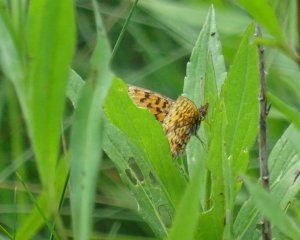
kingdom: Animalia
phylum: Arthropoda
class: Insecta
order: Lepidoptera
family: Nymphalidae
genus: Boloria
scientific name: Boloria selene
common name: Silver-bordered Fritillary
